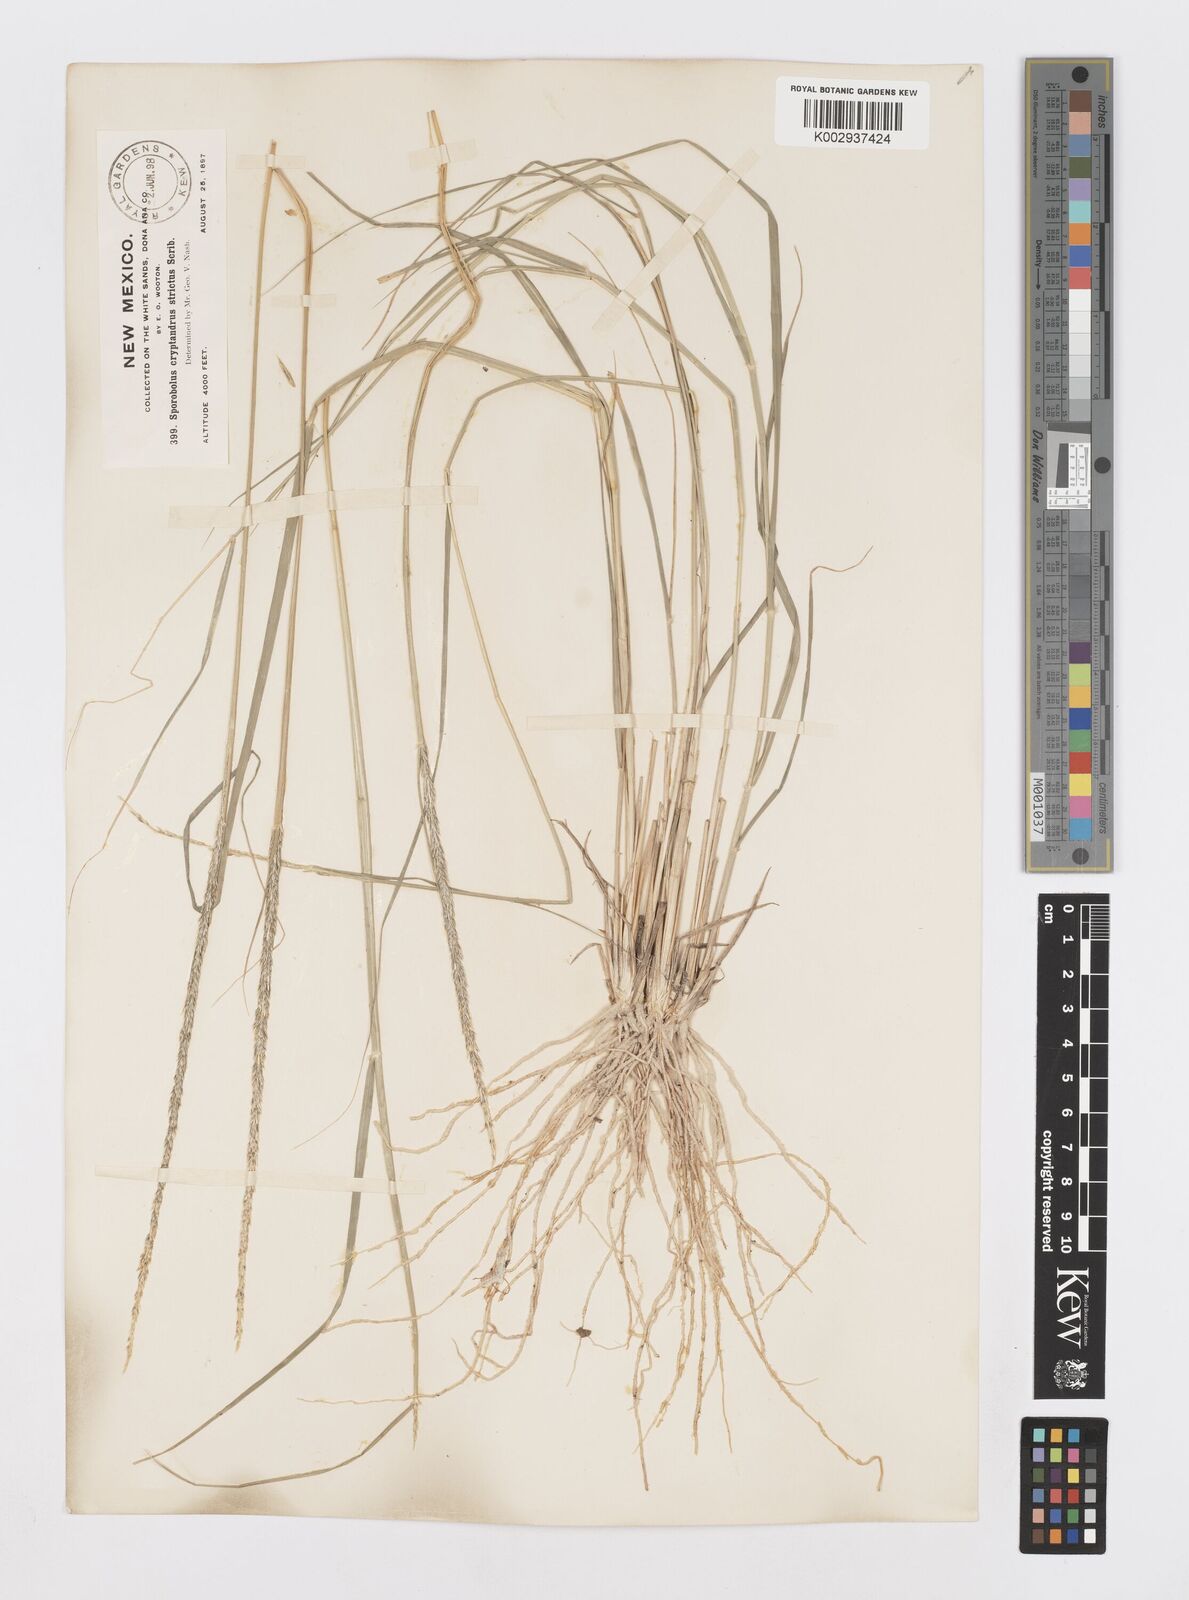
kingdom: Plantae
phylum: Tracheophyta
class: Liliopsida
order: Poales
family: Poaceae
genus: Sporobolus
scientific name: Sporobolus contractus
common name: Spike dropseed
